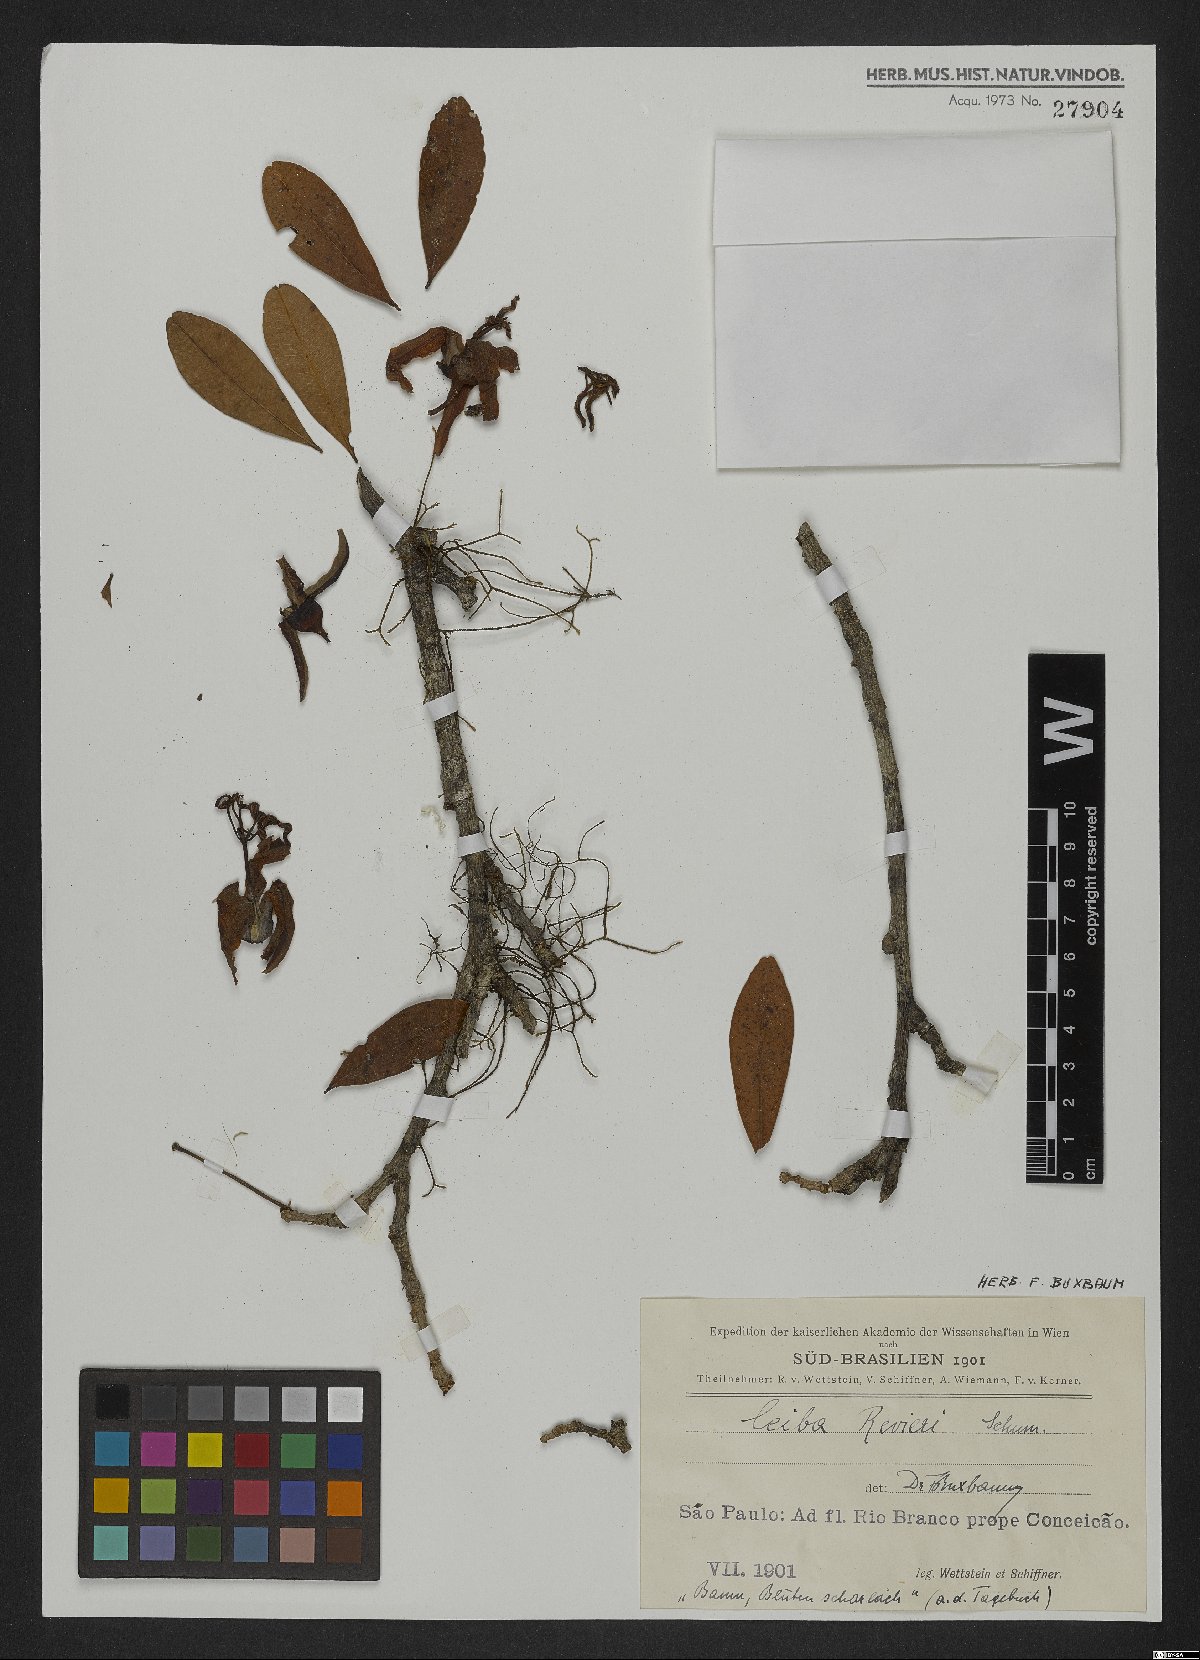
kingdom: Plantae
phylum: Tracheophyta
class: Magnoliopsida
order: Malvales
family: Malvaceae
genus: Spirotheca
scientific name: Spirotheca rivieri
